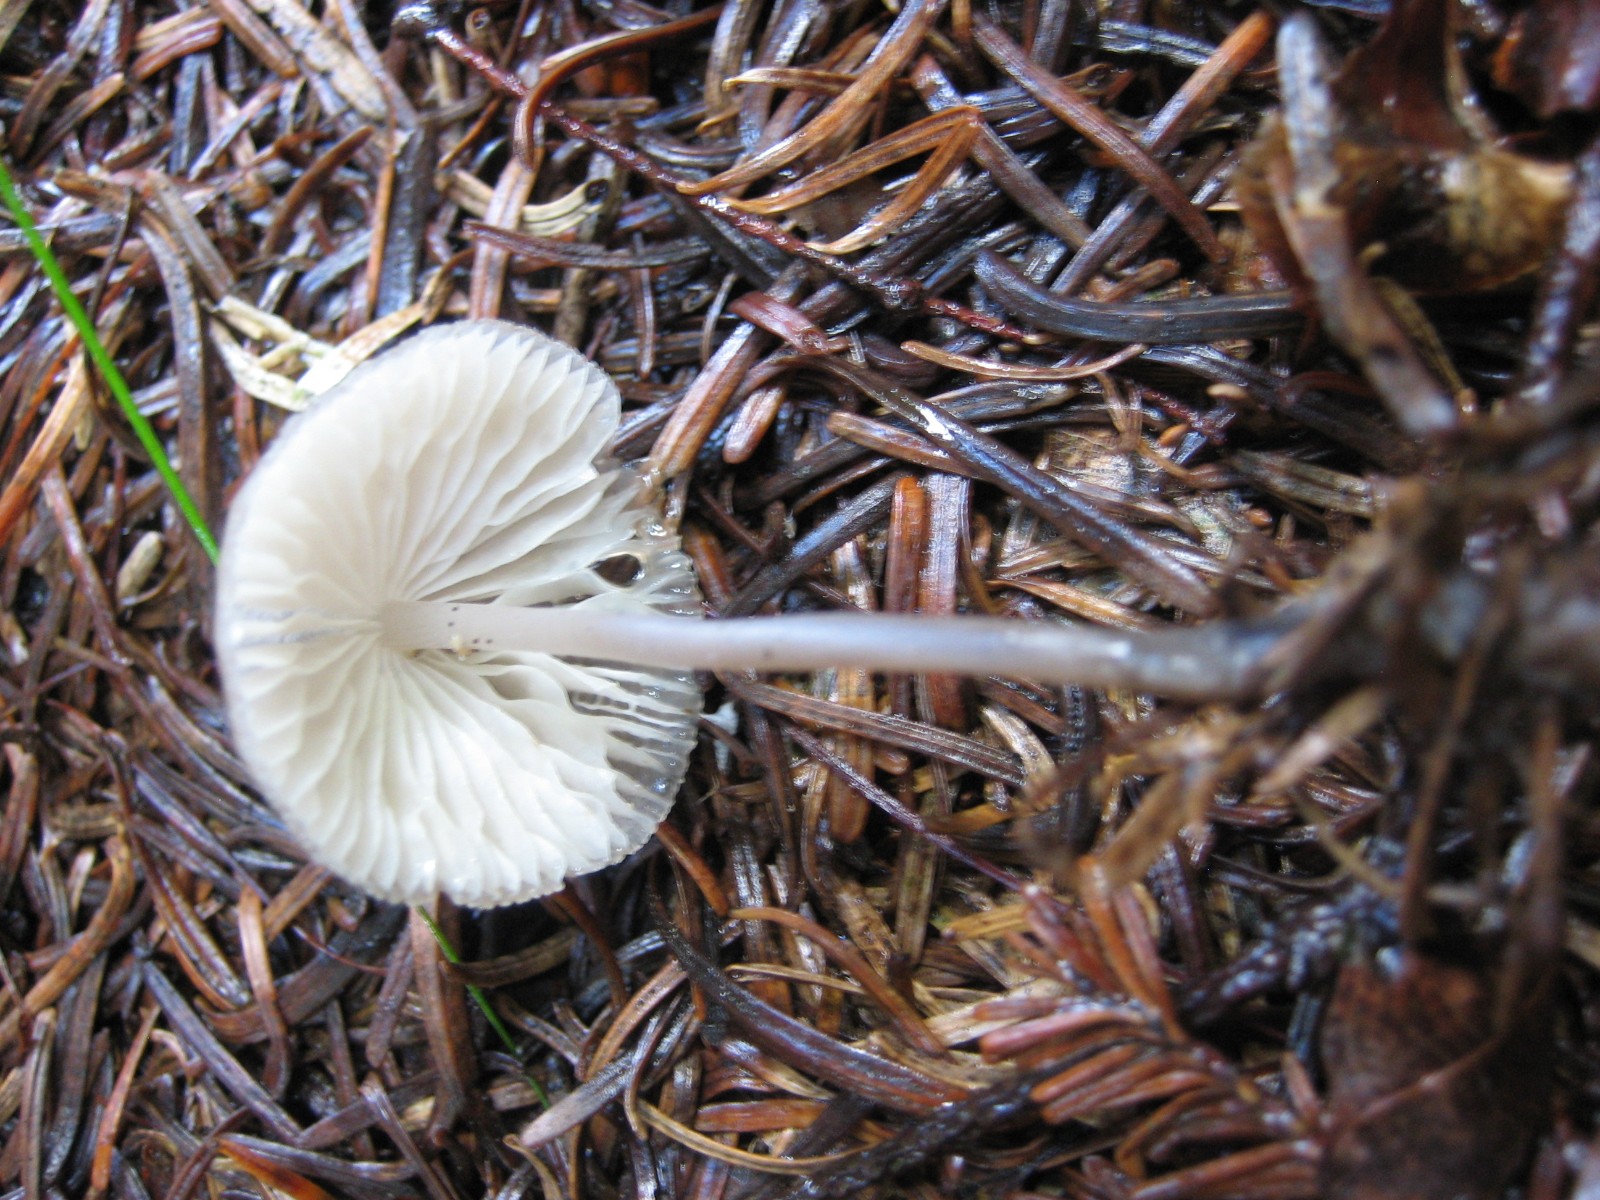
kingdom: Fungi
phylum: Basidiomycota
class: Agaricomycetes
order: Agaricales
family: Mycenaceae
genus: Mycena
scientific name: Mycena
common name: huesvamp
